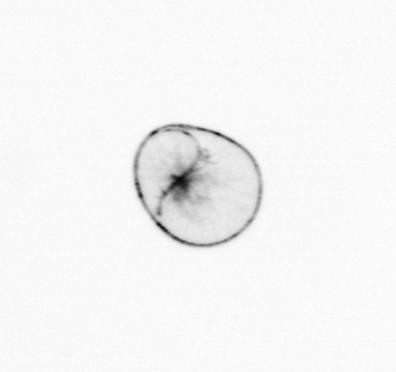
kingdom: Chromista
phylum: Myzozoa
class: Dinophyceae
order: Noctilucales
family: Noctilucaceae
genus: Noctiluca
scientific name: Noctiluca scintillans
